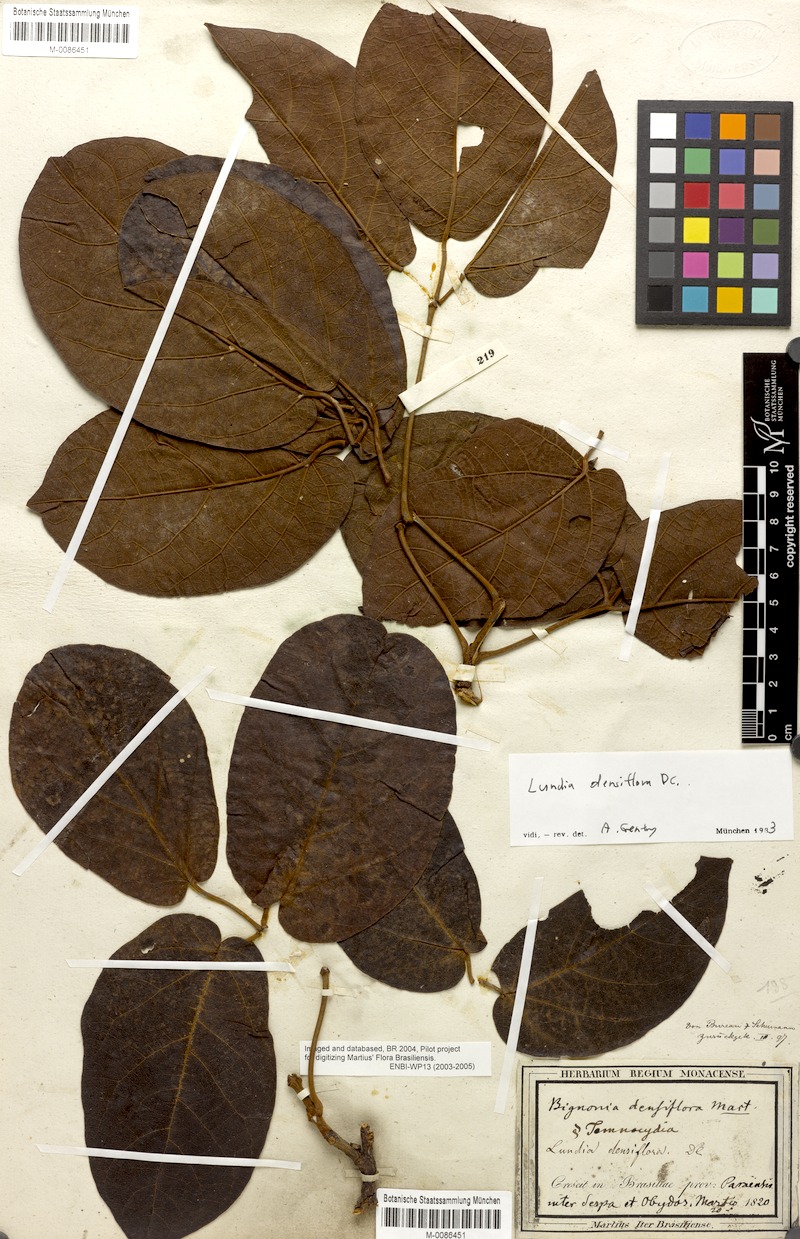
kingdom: Plantae
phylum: Tracheophyta
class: Magnoliopsida
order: Lamiales
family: Bignoniaceae
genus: Lundia
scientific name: Lundia densiflora
